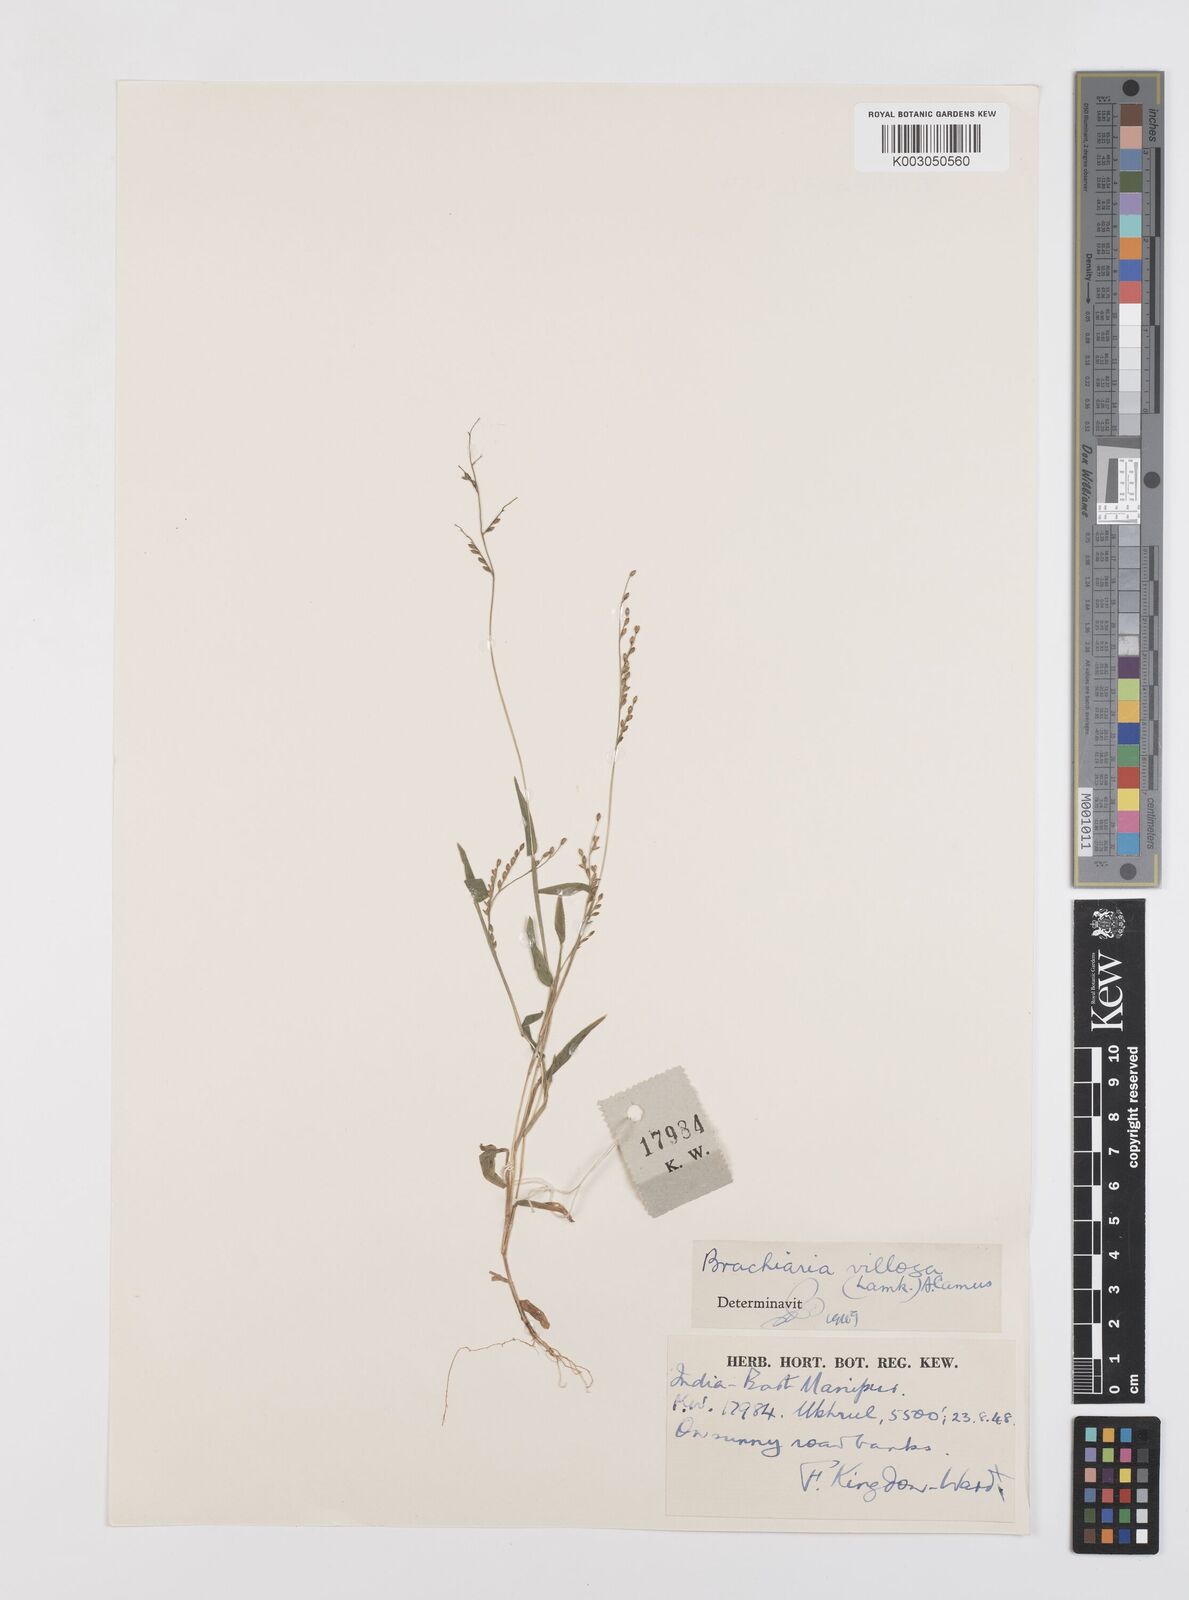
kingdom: Plantae
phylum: Tracheophyta
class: Liliopsida
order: Poales
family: Poaceae
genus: Urochloa
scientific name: Urochloa villosa
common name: Hairy signalgrass
